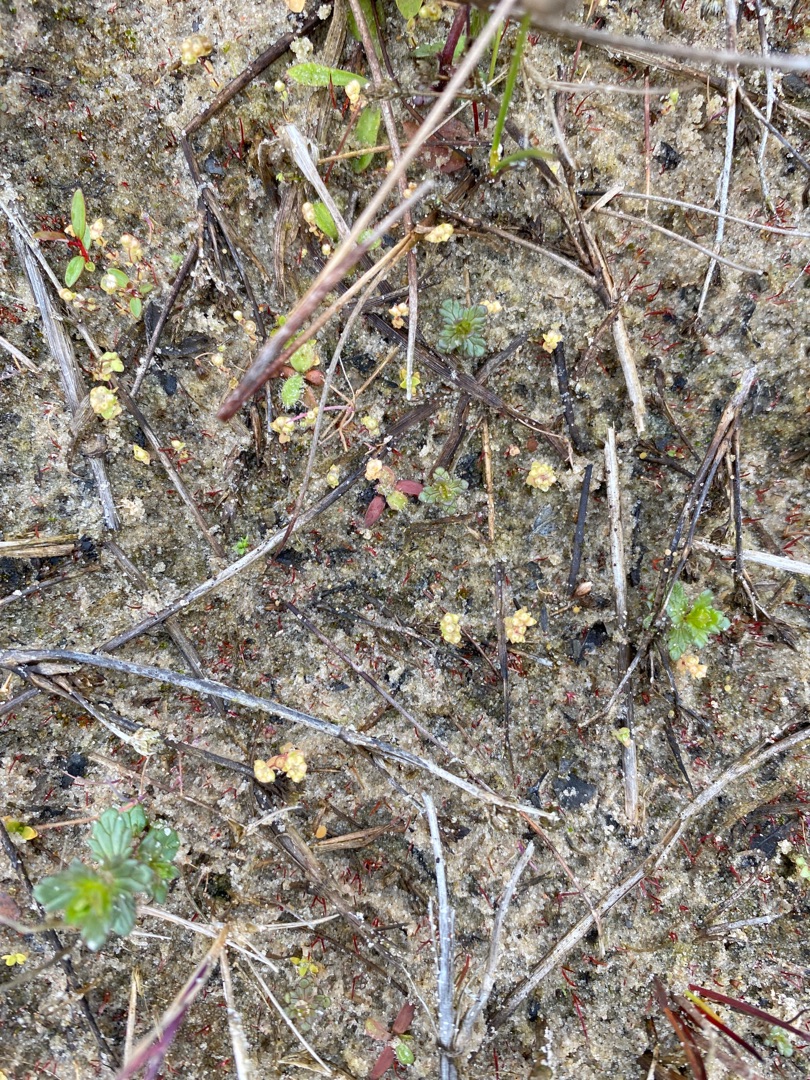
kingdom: Plantae
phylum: Tracheophyta
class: Magnoliopsida
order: Malpighiales
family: Linaceae
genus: Radiola
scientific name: Radiola linoides
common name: Tusindfrø
